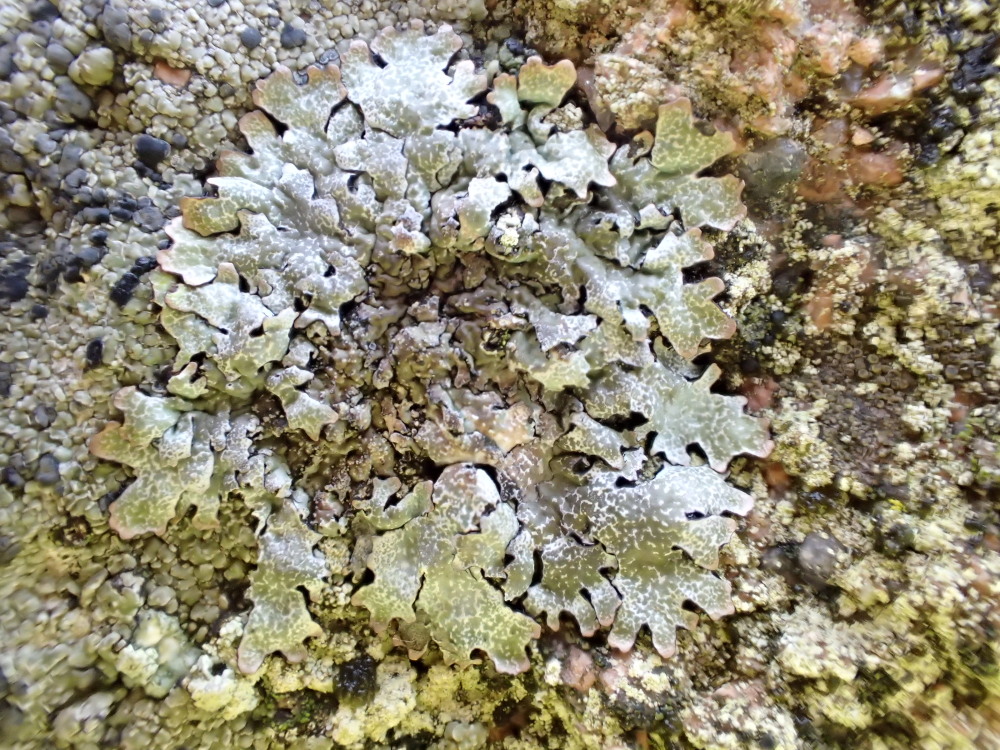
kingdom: Fungi
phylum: Ascomycota
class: Lecanoromycetes
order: Lecanorales
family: Parmeliaceae
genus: Parmelia
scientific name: Parmelia saxatilis
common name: farve-skållav
